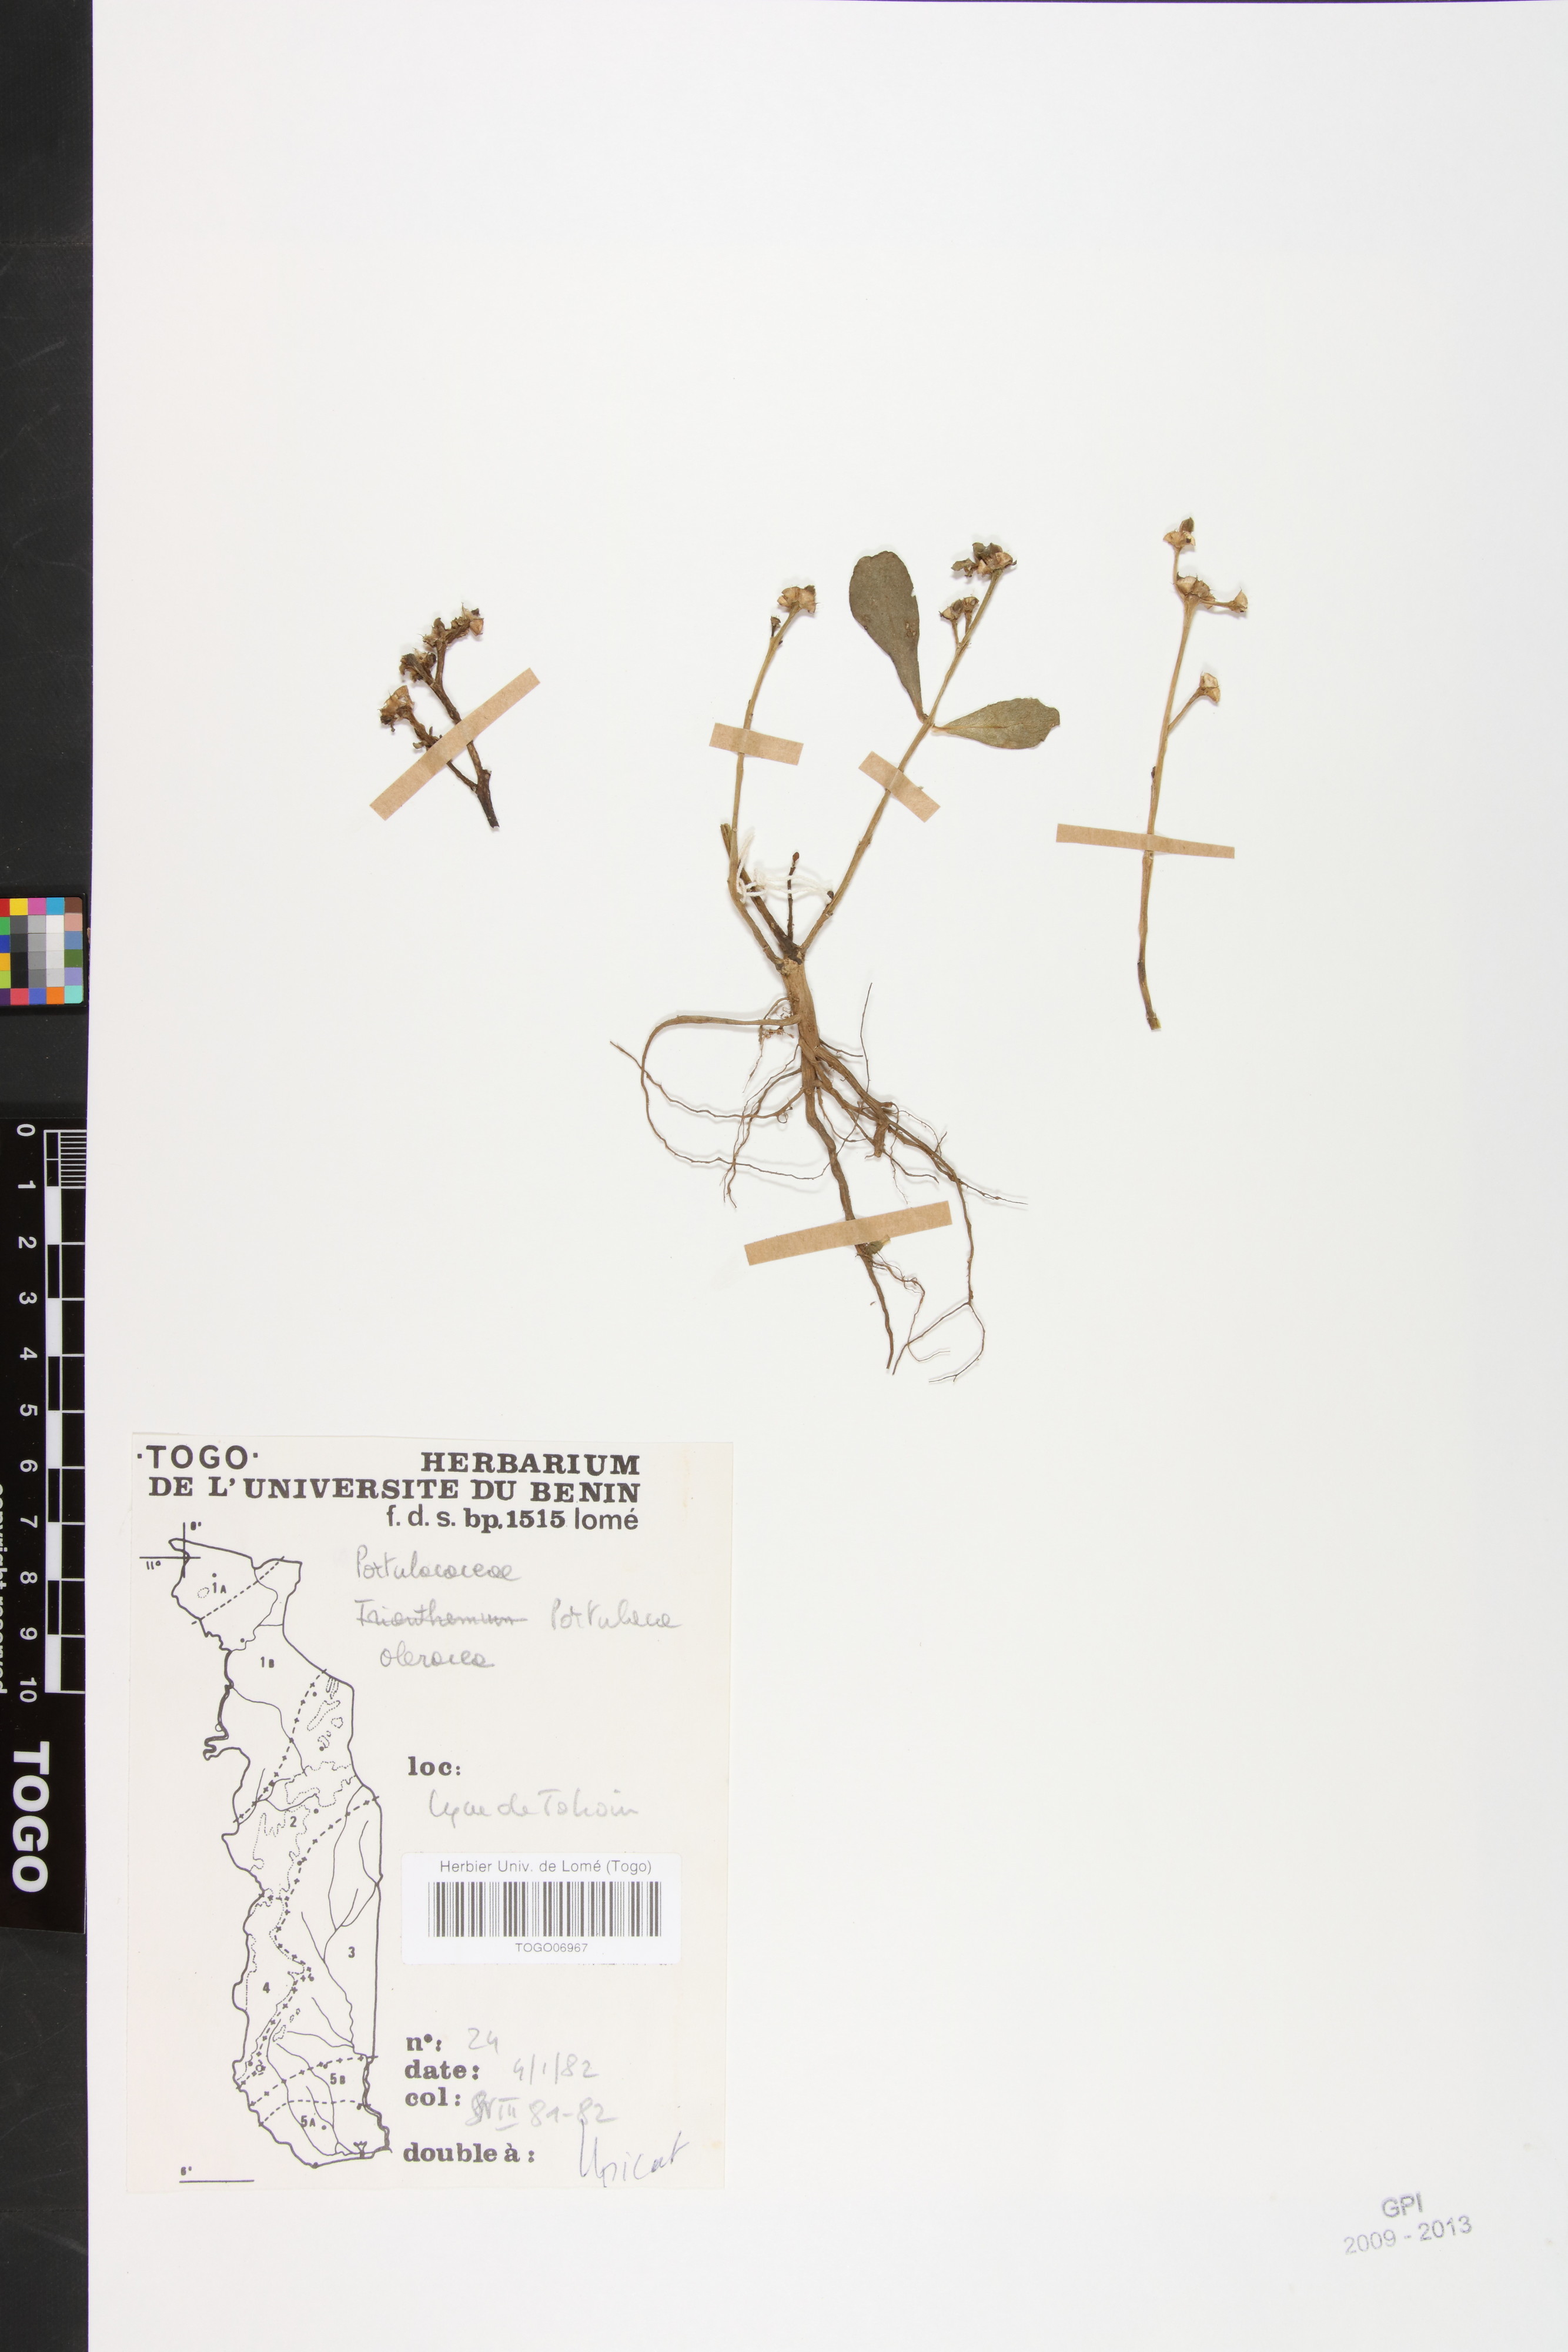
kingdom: Plantae
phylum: Tracheophyta
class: Magnoliopsida
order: Caryophyllales
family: Portulacaceae
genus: Portulaca
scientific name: Portulaca oleracea
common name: Common purslane
